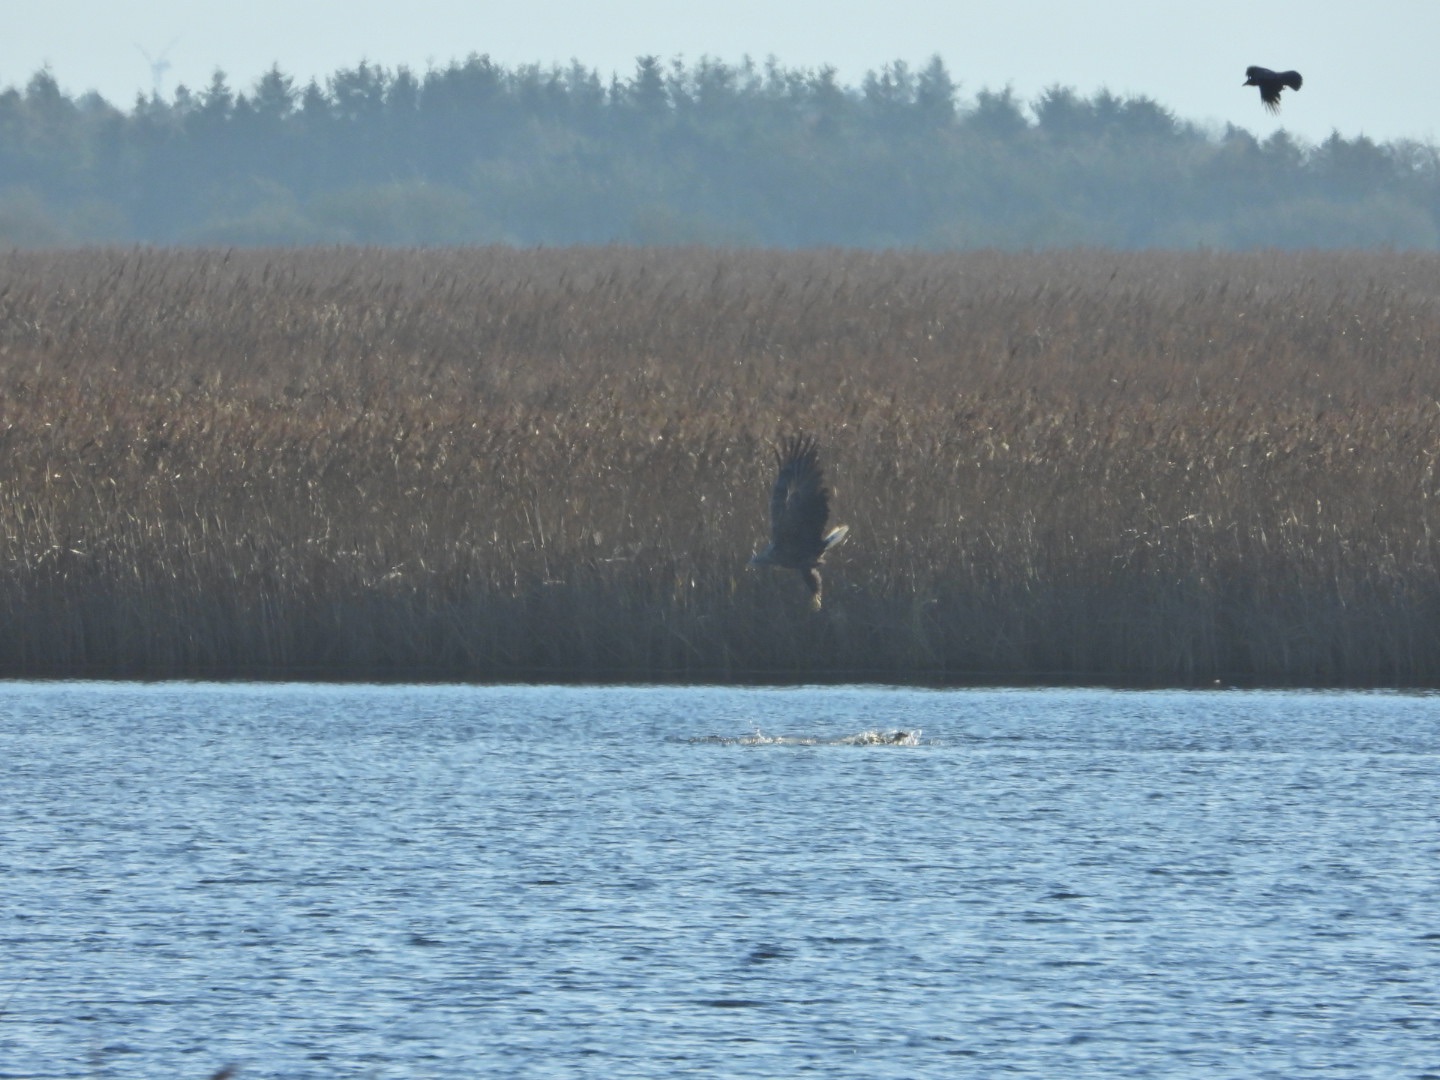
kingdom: Animalia
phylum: Chordata
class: Aves
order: Accipitriformes
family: Accipitridae
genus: Haliaeetus
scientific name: Haliaeetus albicilla
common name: Havørn
